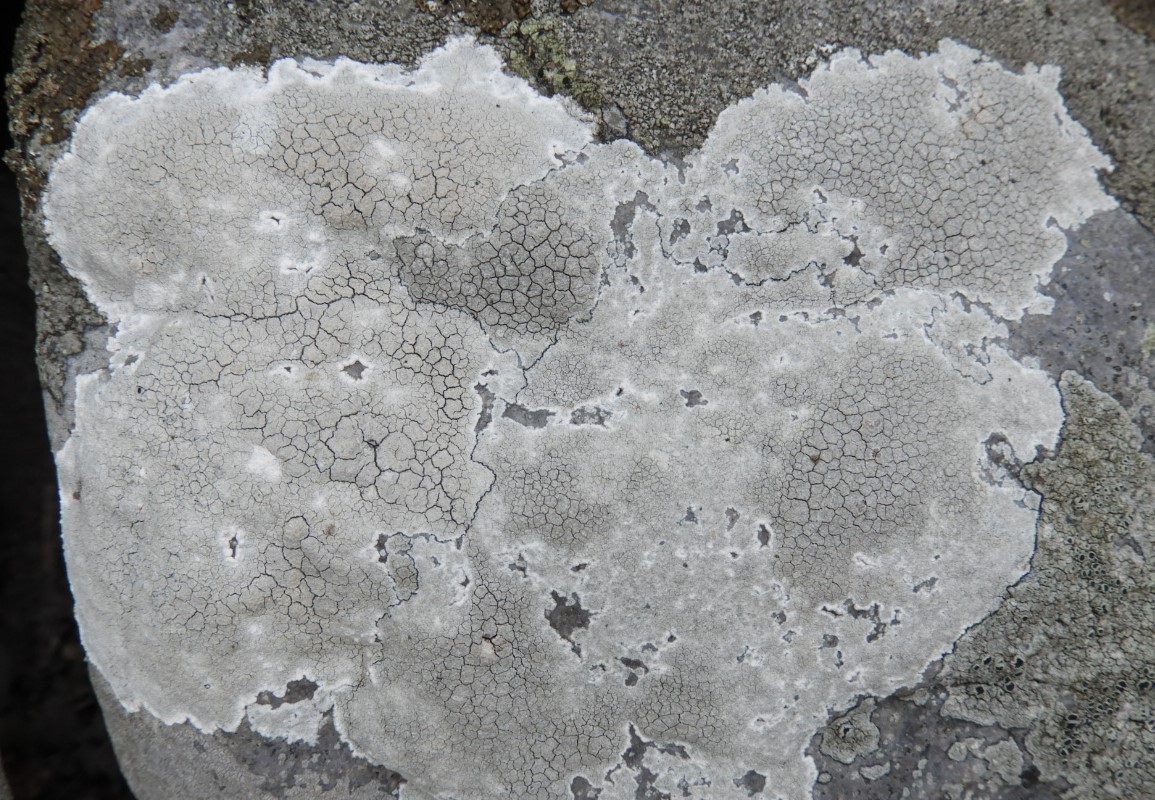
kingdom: Fungi
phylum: Ascomycota
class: Lecanoromycetes
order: Lecanorales
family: Lecanoraceae
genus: Glaucomaria
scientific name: Glaucomaria rupicola
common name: stengærde-kantskivelav
